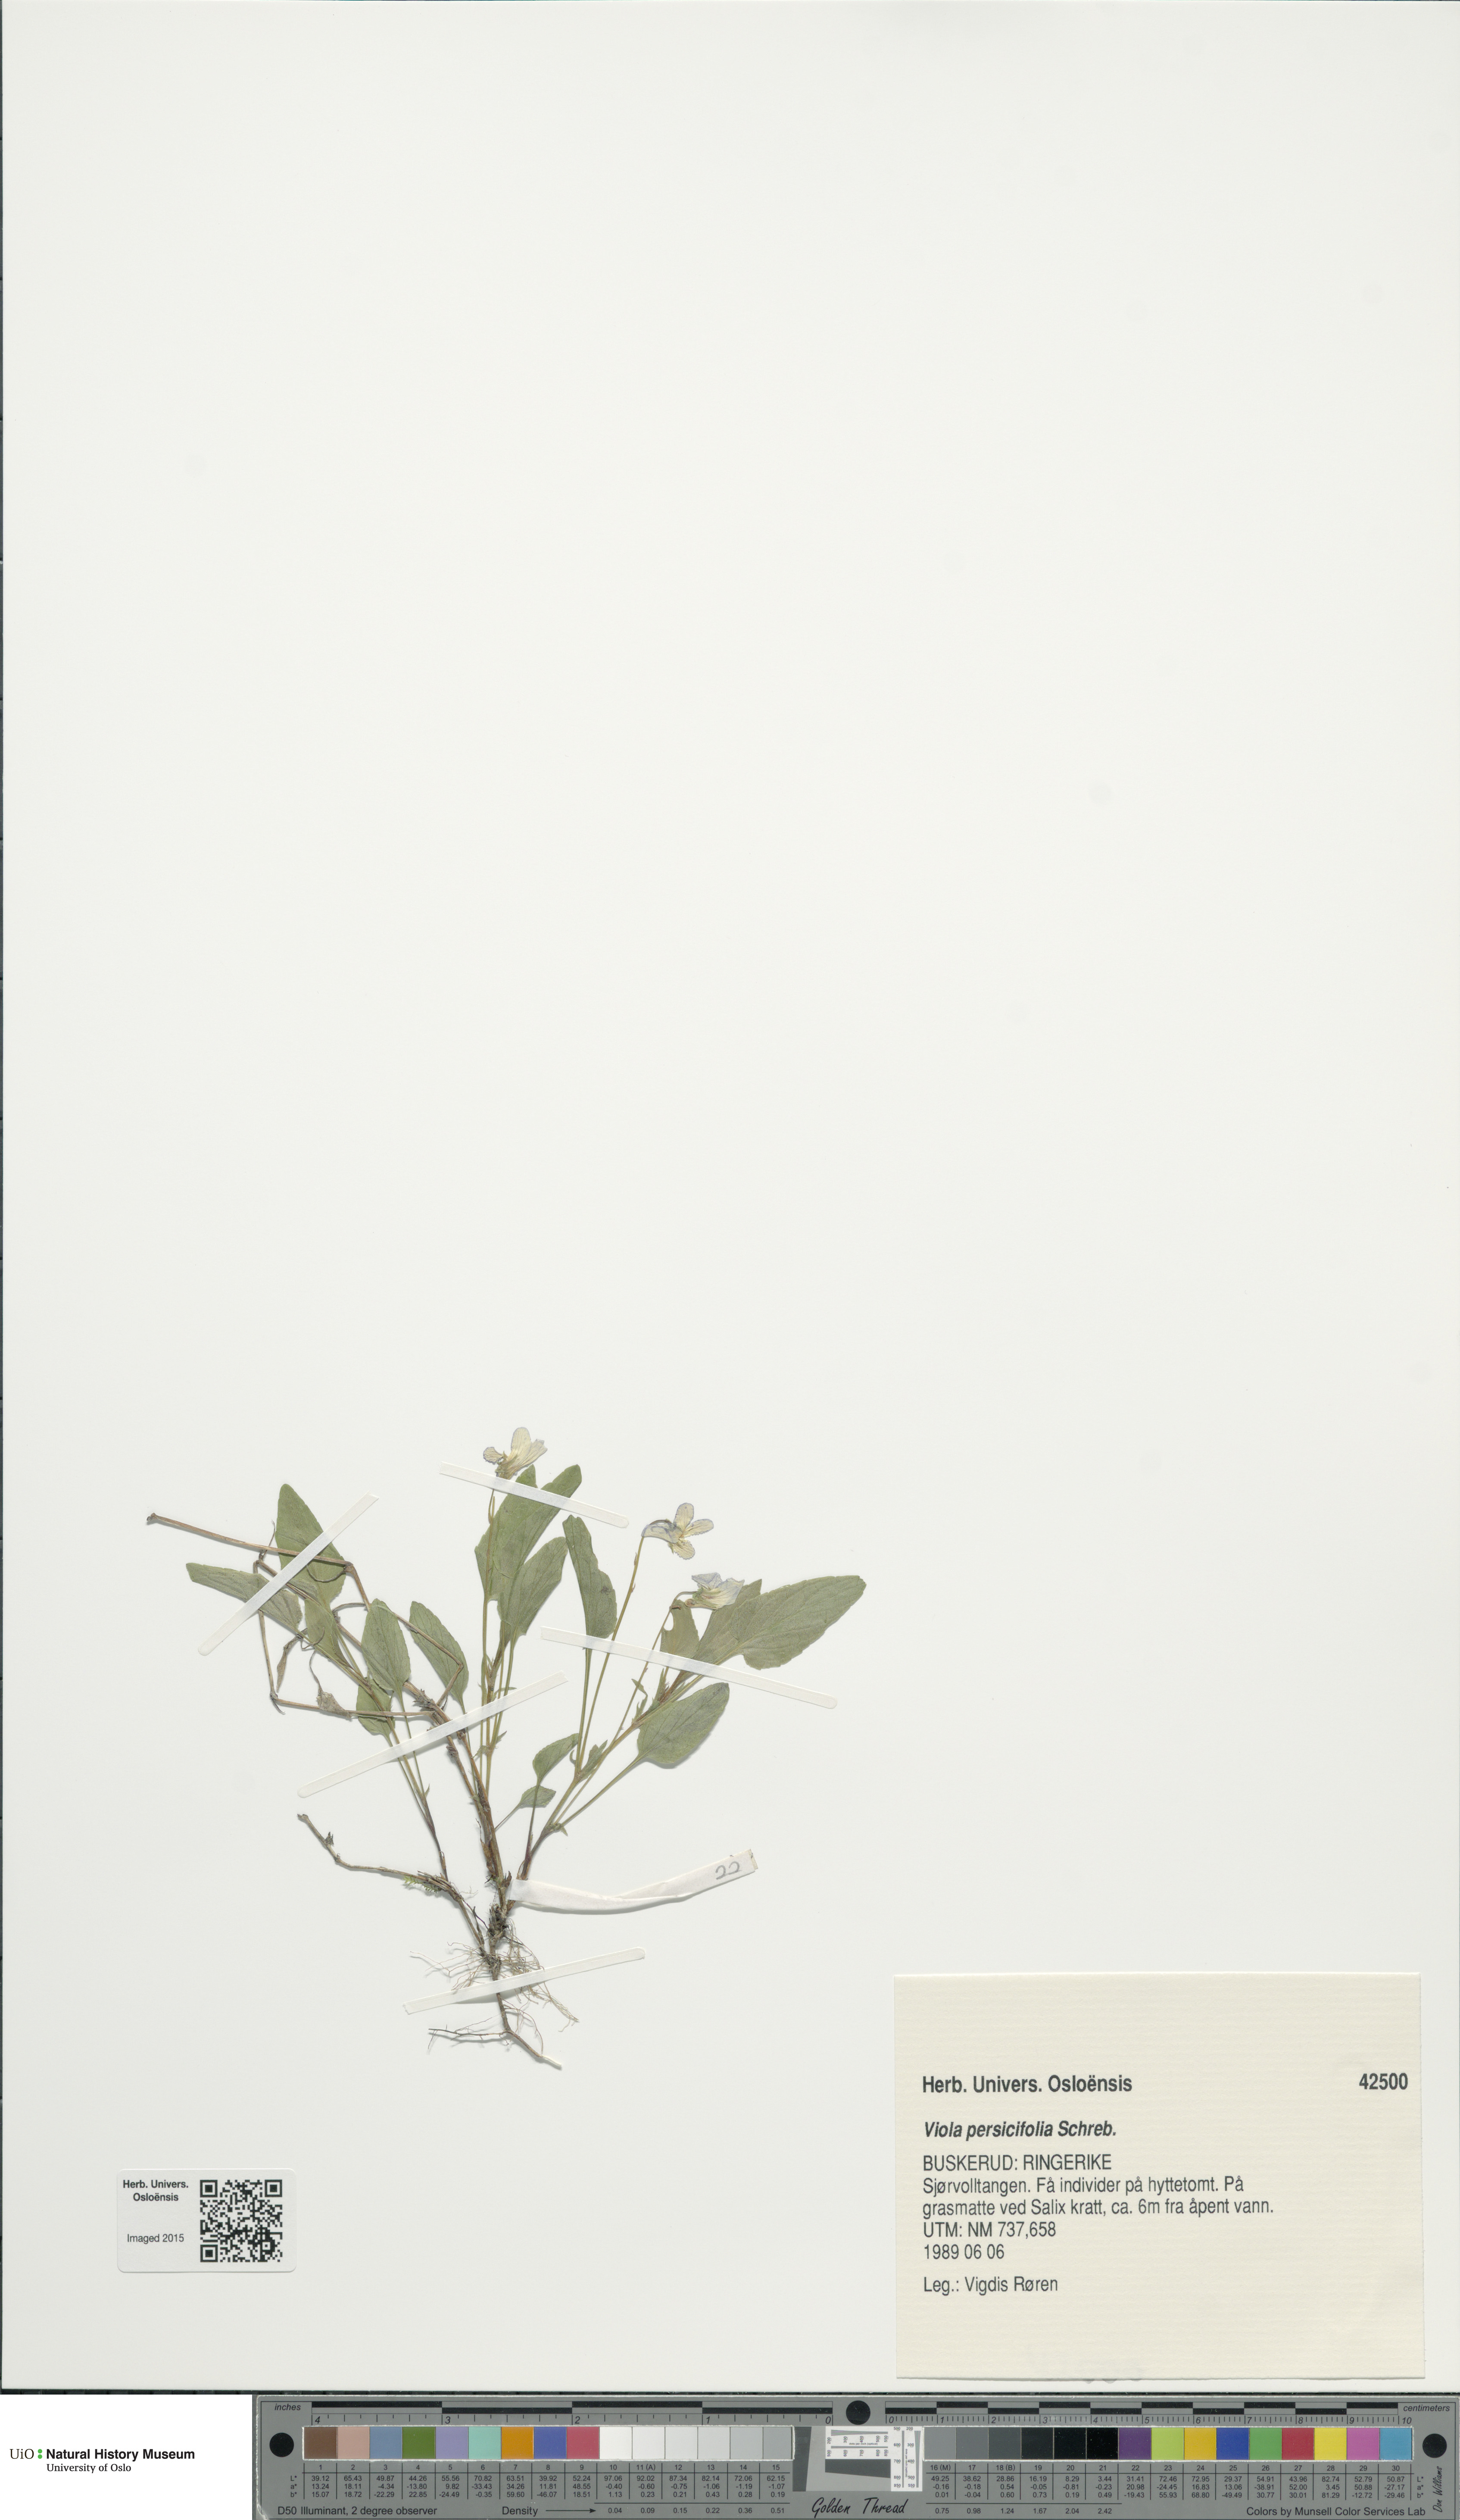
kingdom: Plantae
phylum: Tracheophyta
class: Magnoliopsida
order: Malpighiales
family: Violaceae
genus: Viola
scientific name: Viola stagnina
